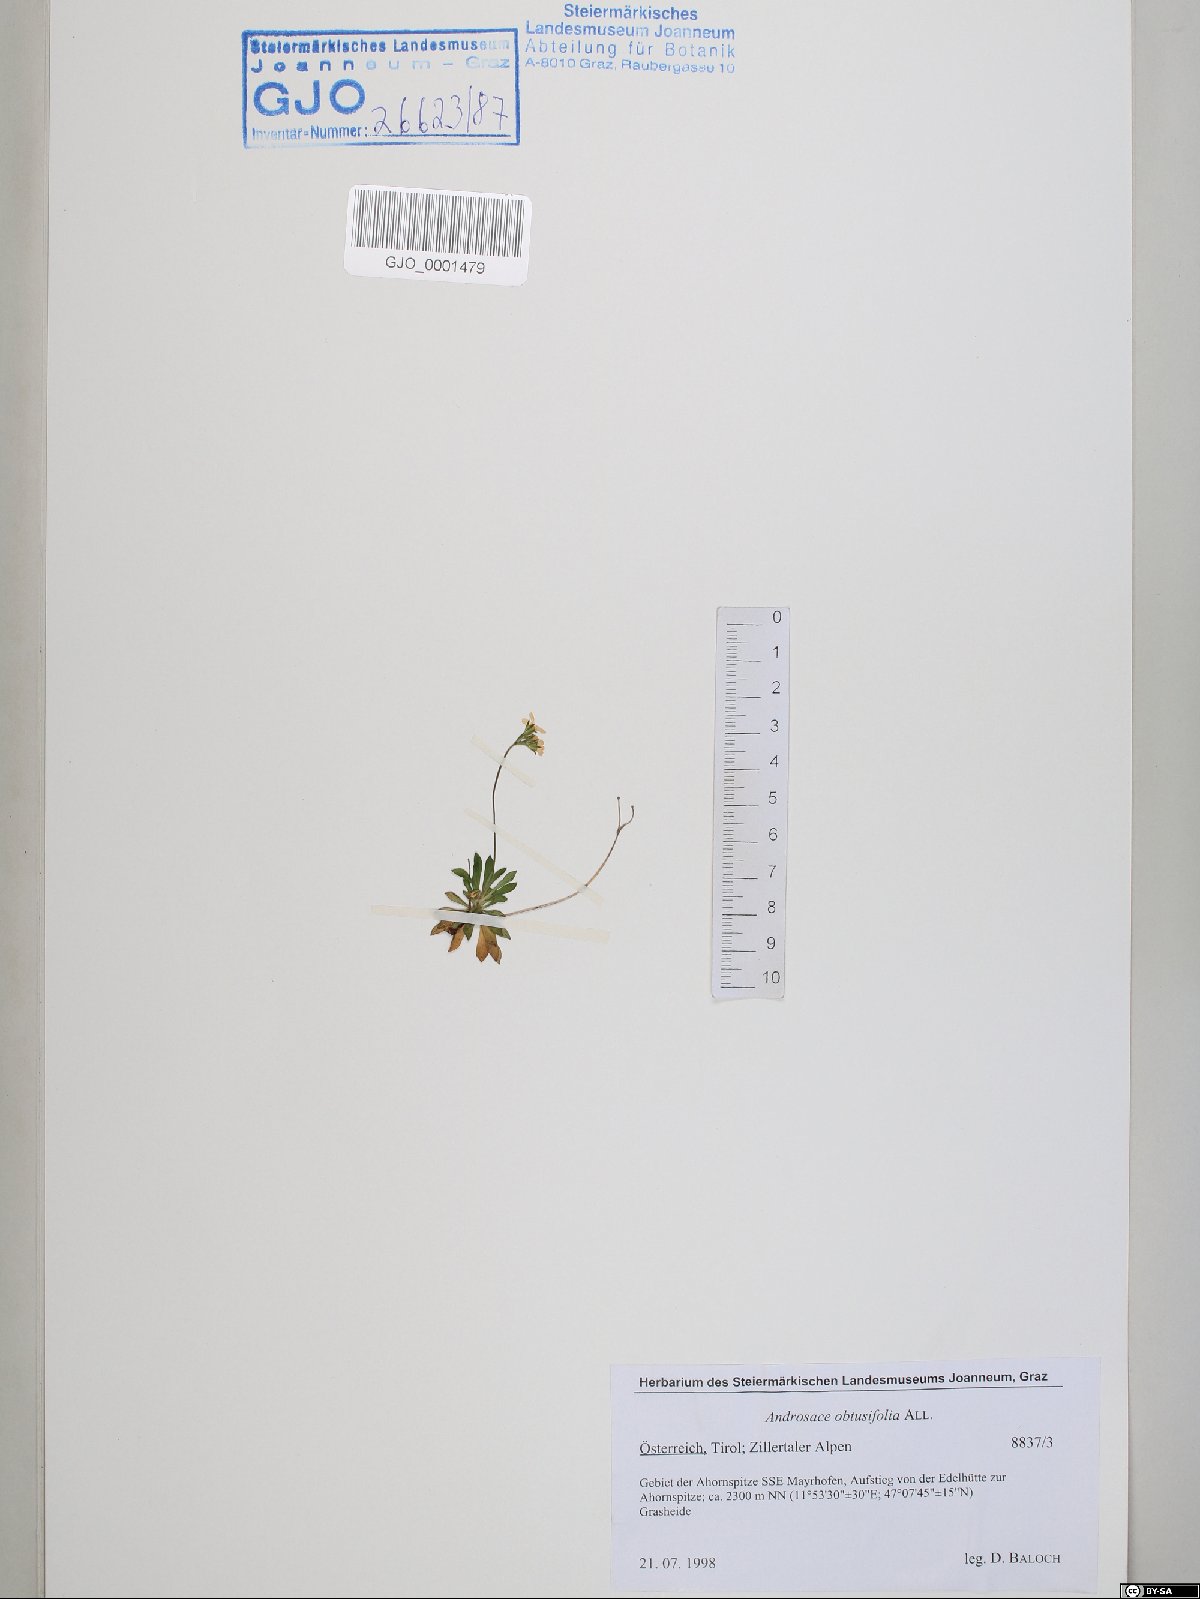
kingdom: Plantae
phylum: Tracheophyta
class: Magnoliopsida
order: Ericales
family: Primulaceae
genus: Androsace
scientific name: Androsace obtusifolia
